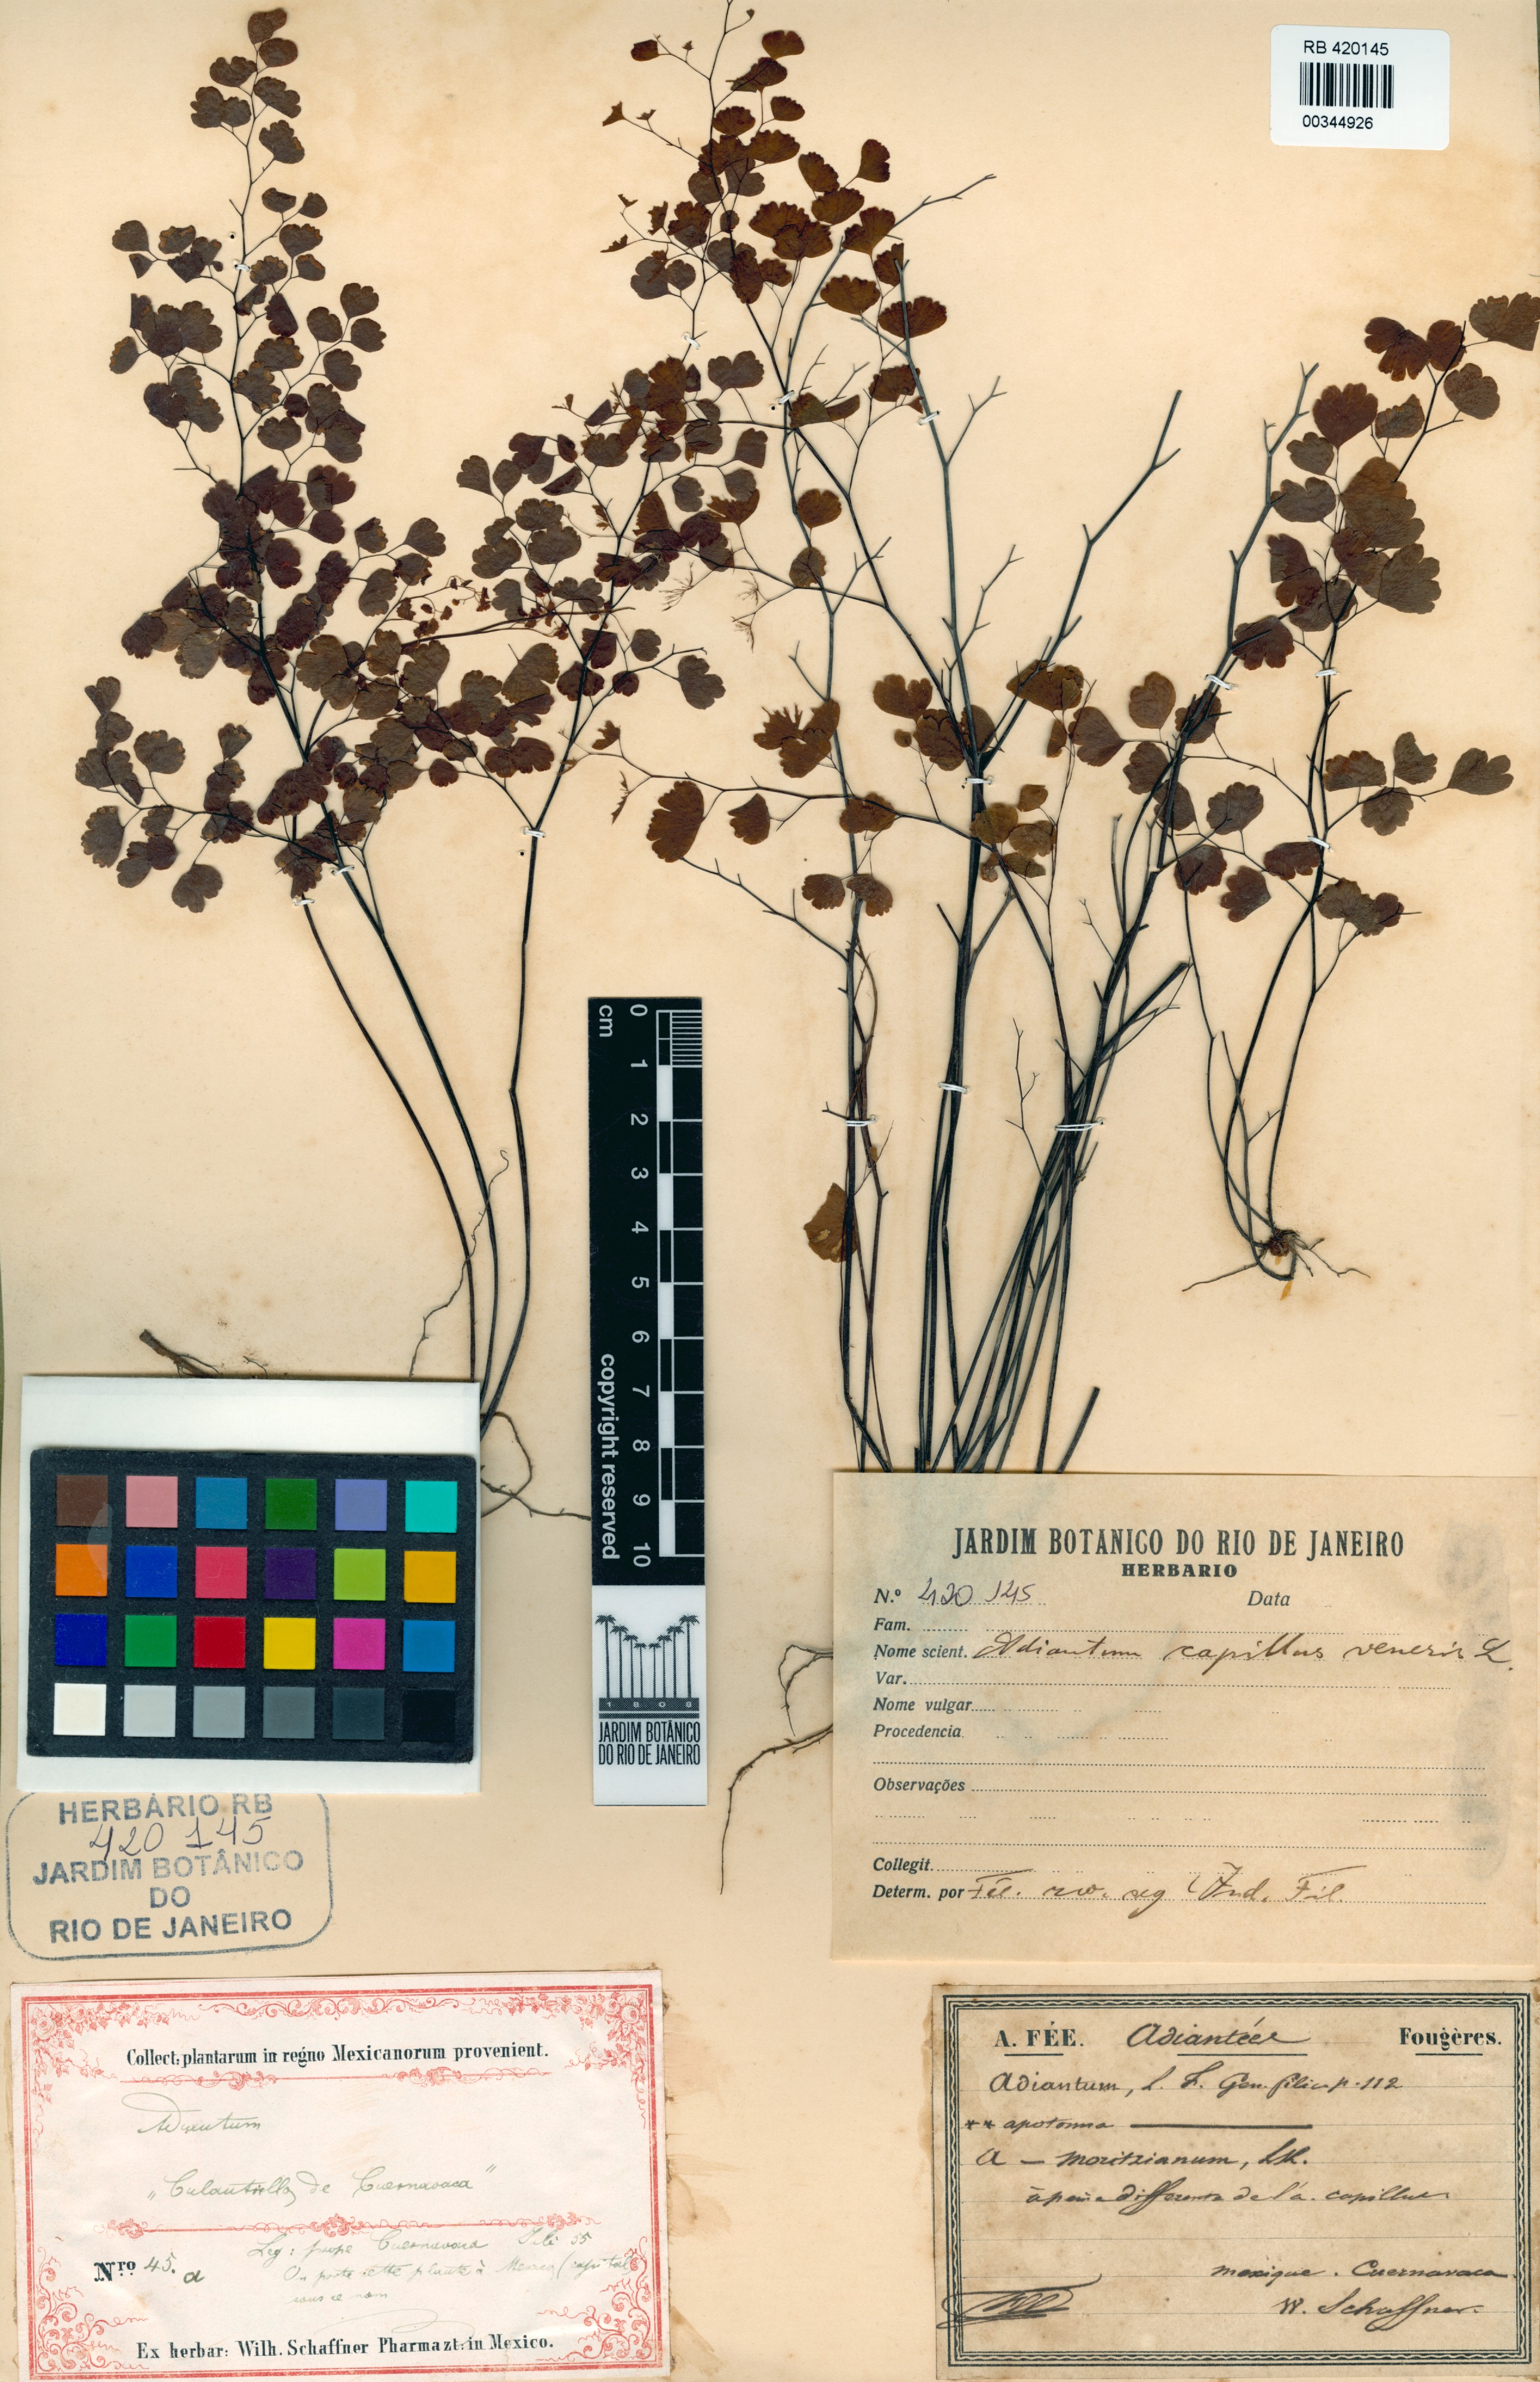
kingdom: Plantae
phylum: Tracheophyta
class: Polypodiopsida
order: Polypodiales
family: Pteridaceae
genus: Adiantum
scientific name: Adiantum capillus-veneris
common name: Maidenhair fern
